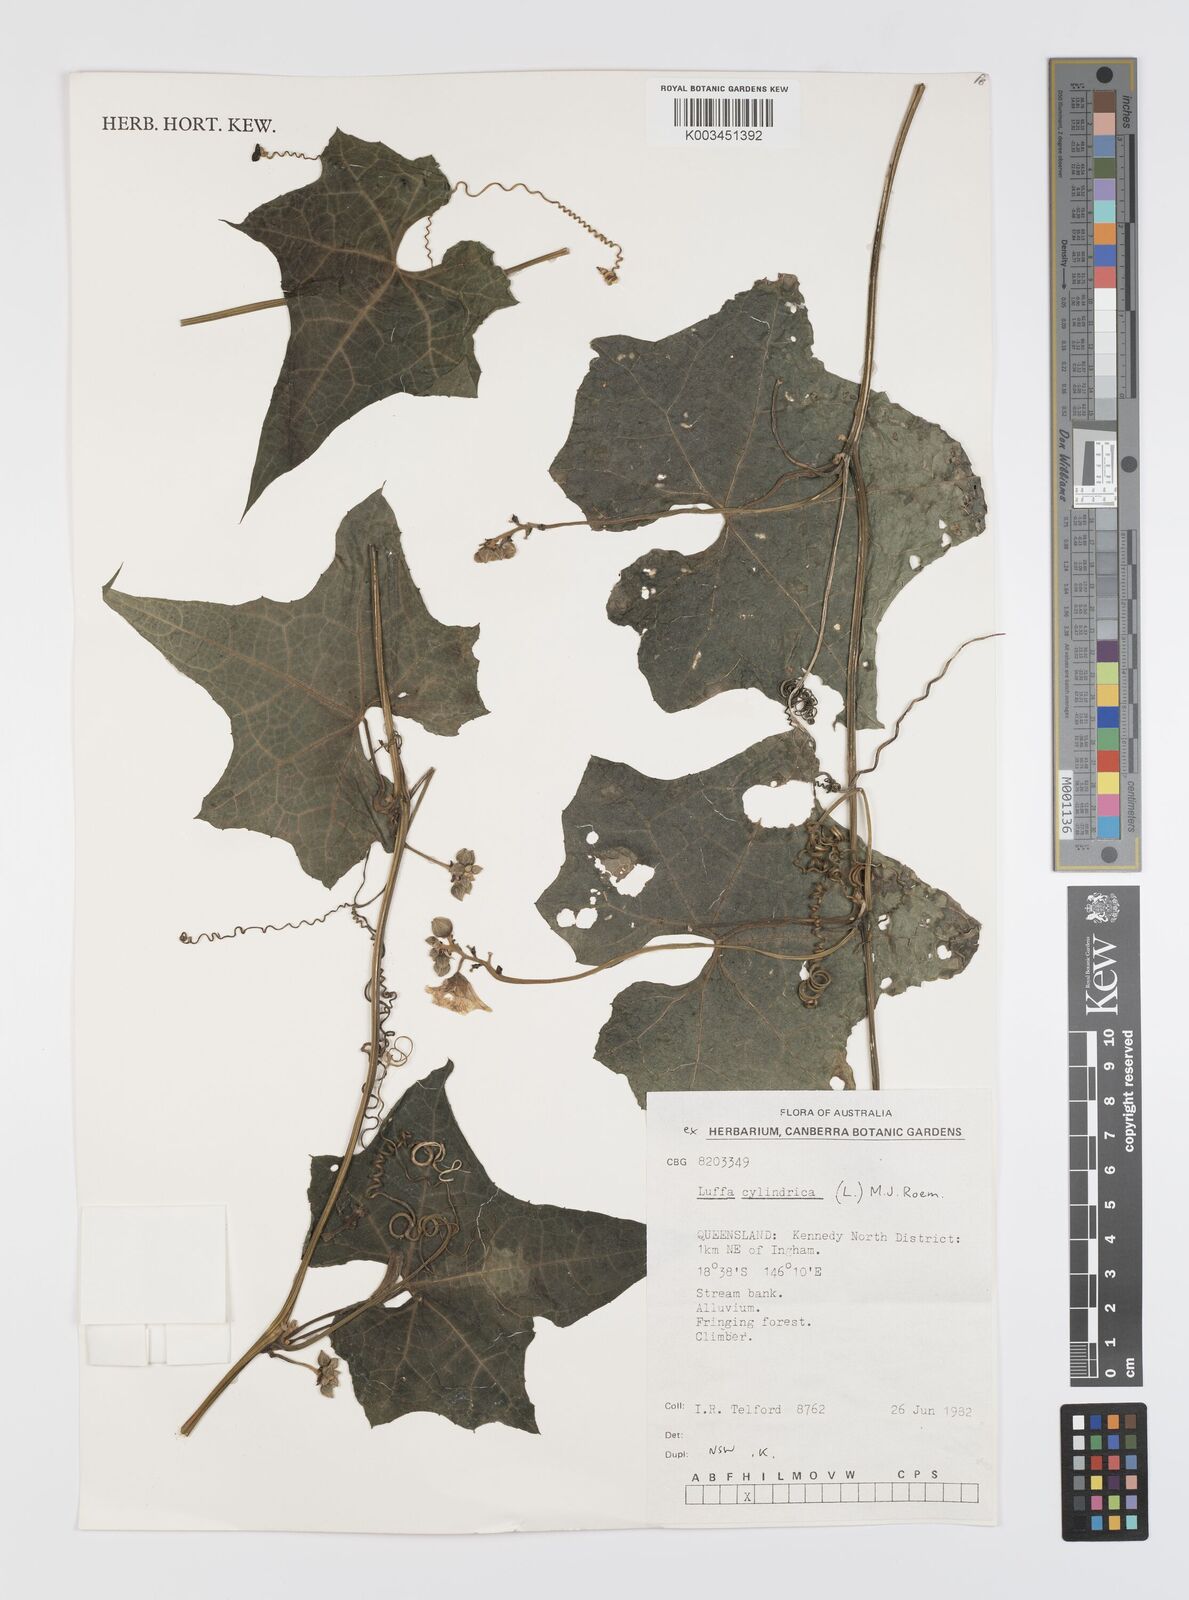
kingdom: Plantae
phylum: Tracheophyta
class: Magnoliopsida
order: Cucurbitales
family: Cucurbitaceae
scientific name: Cucurbitaceae
